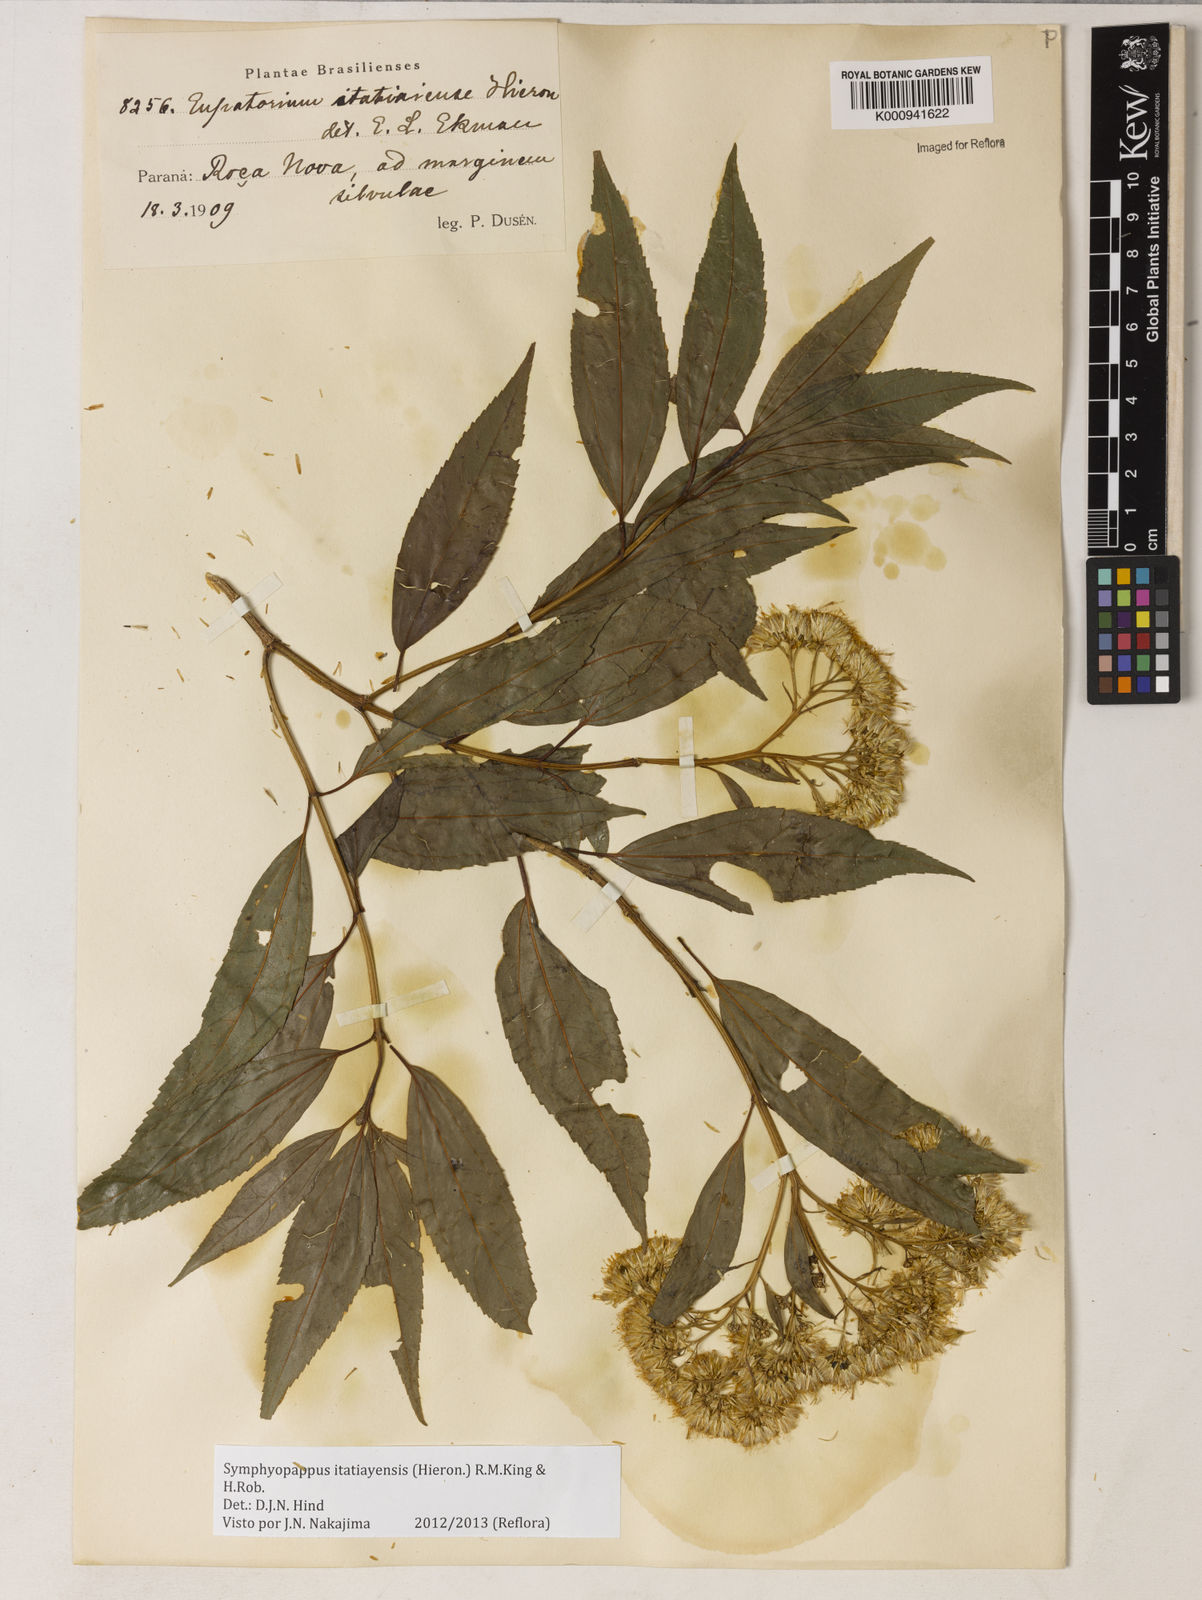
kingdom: Plantae
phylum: Tracheophyta
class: Magnoliopsida
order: Asterales
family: Asteraceae
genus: Symphyopappus
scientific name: Symphyopappus itatiayensis
